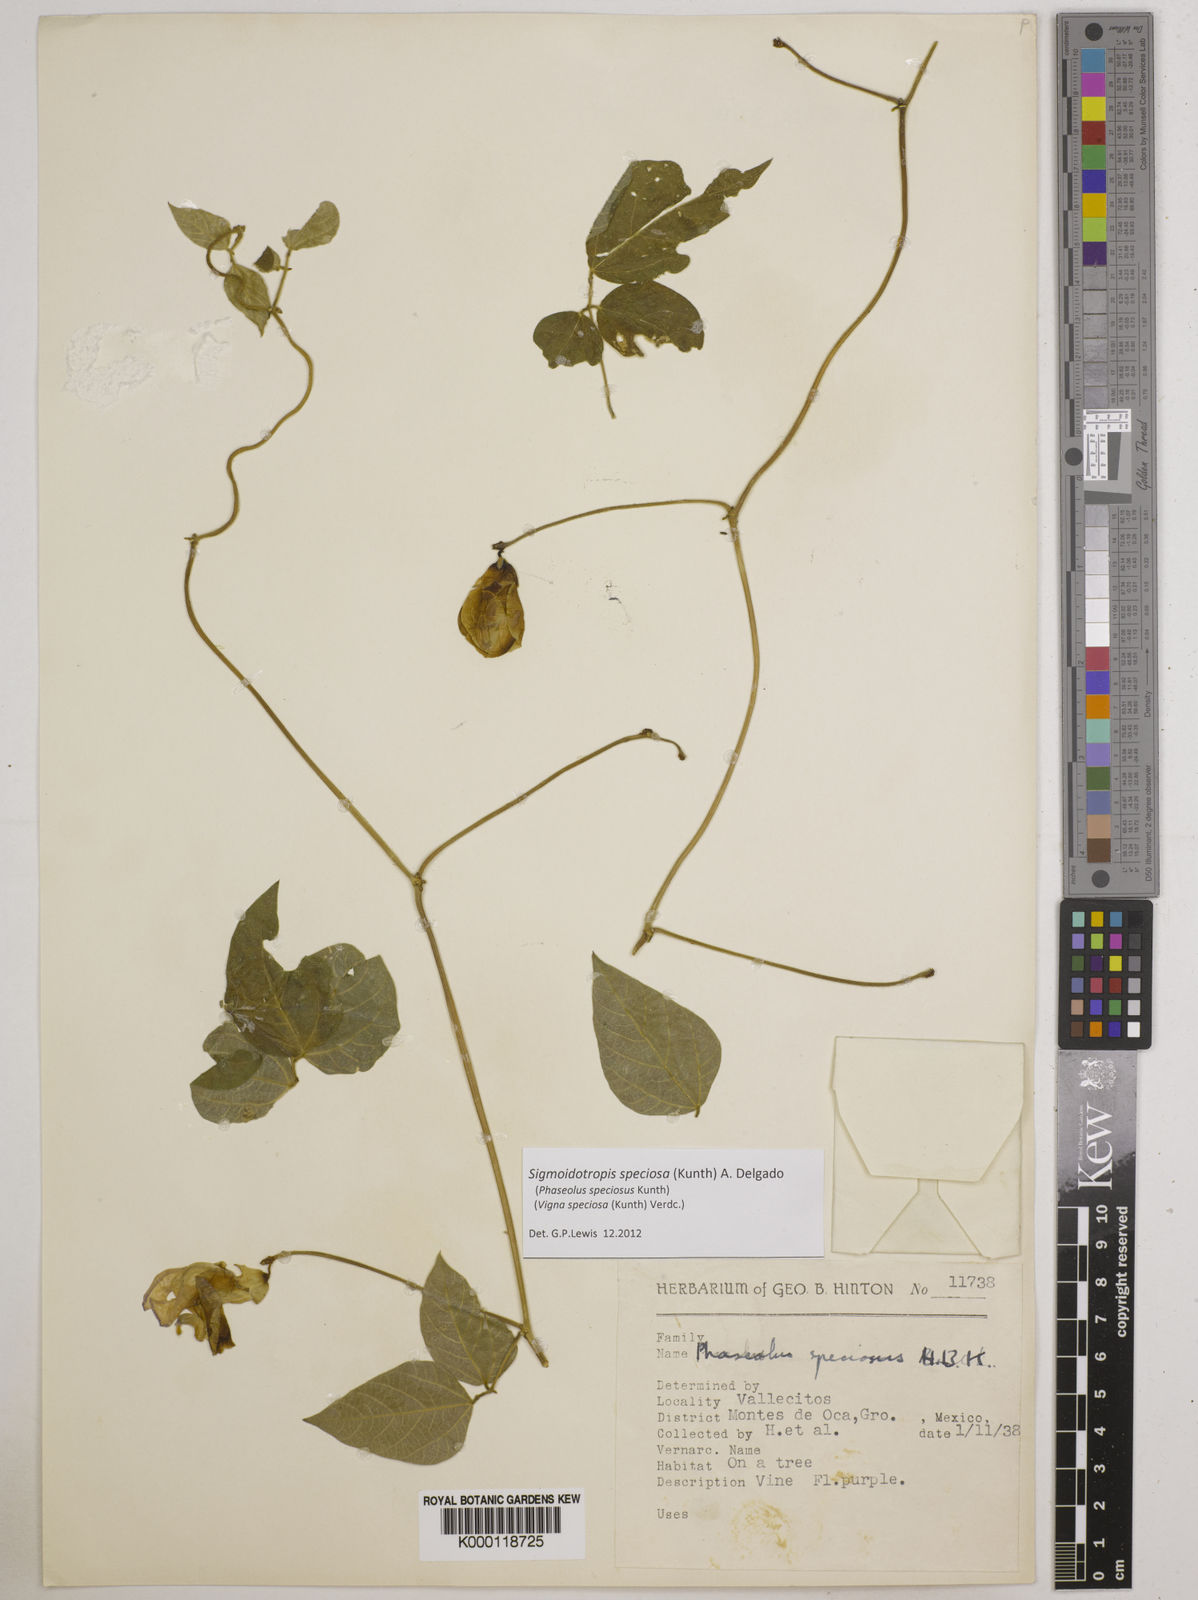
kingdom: Plantae
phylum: Tracheophyta
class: Magnoliopsida
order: Fabales
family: Fabaceae
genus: Sigmoidotropis
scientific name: Sigmoidotropis speciosa
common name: Snail flower
